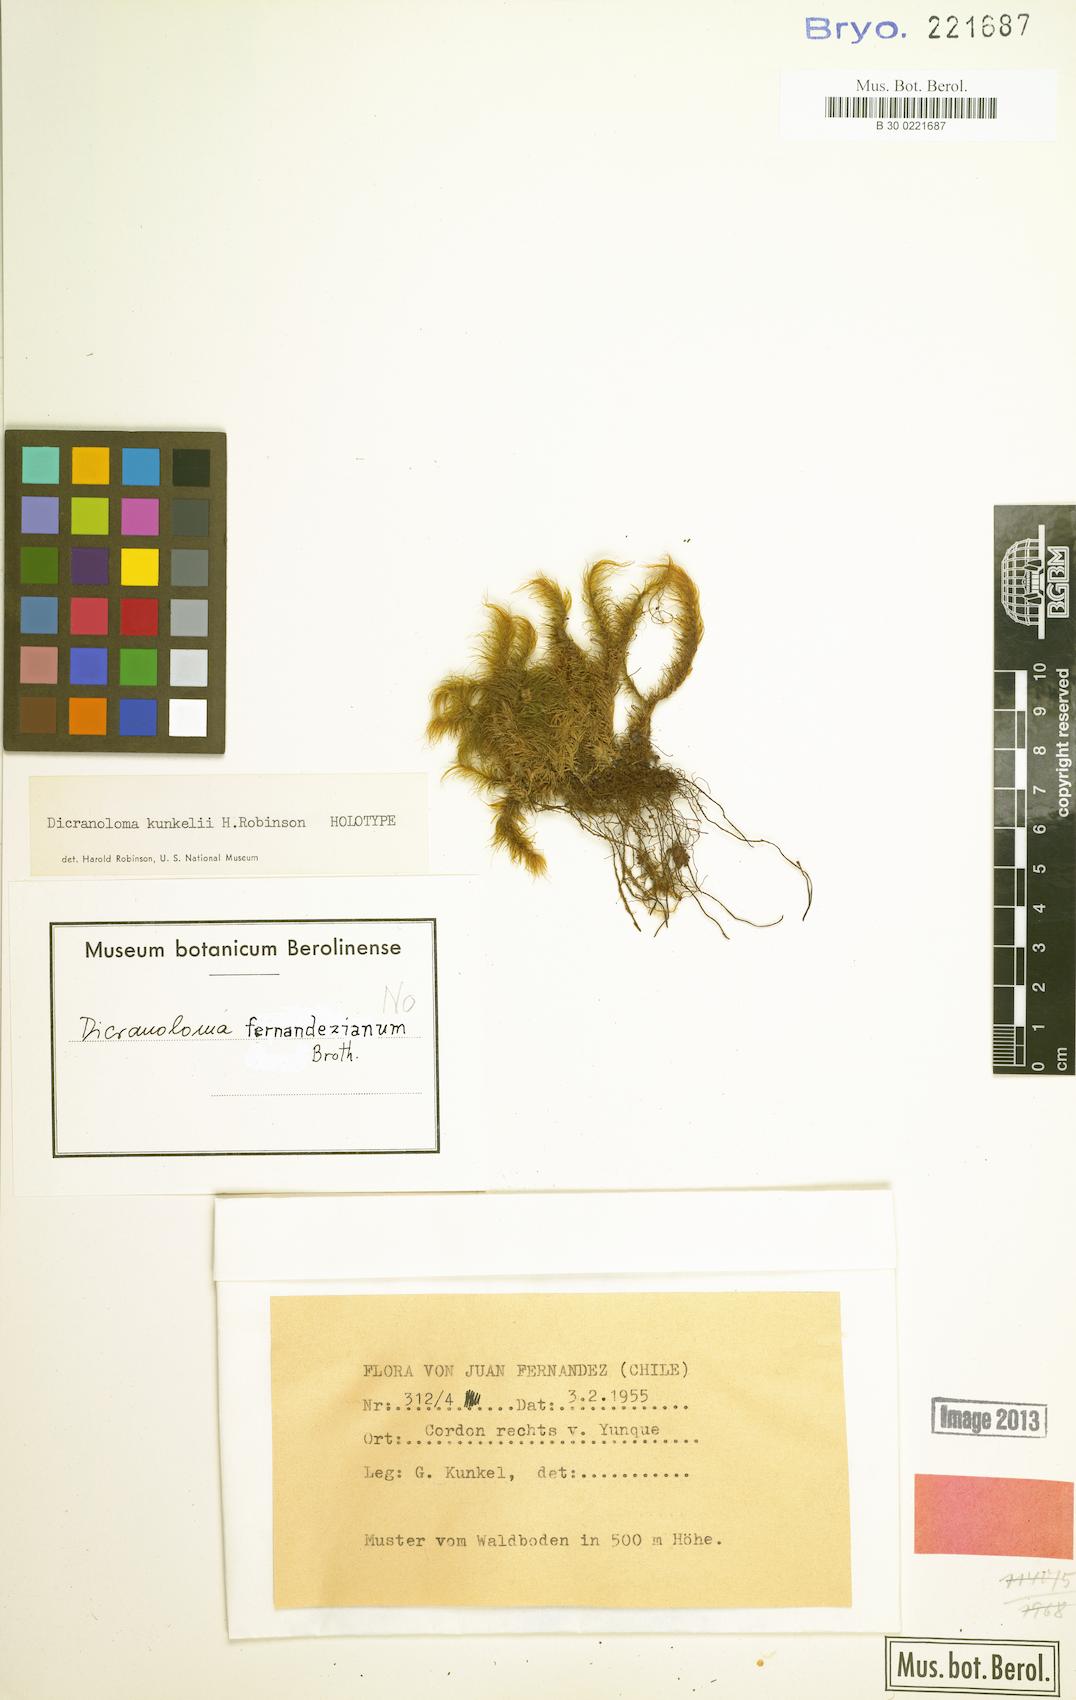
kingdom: Plantae
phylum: Bryophyta
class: Bryopsida
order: Dicranales
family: Dicranaceae
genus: Dicranoloma
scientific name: Dicranoloma kunkelii
